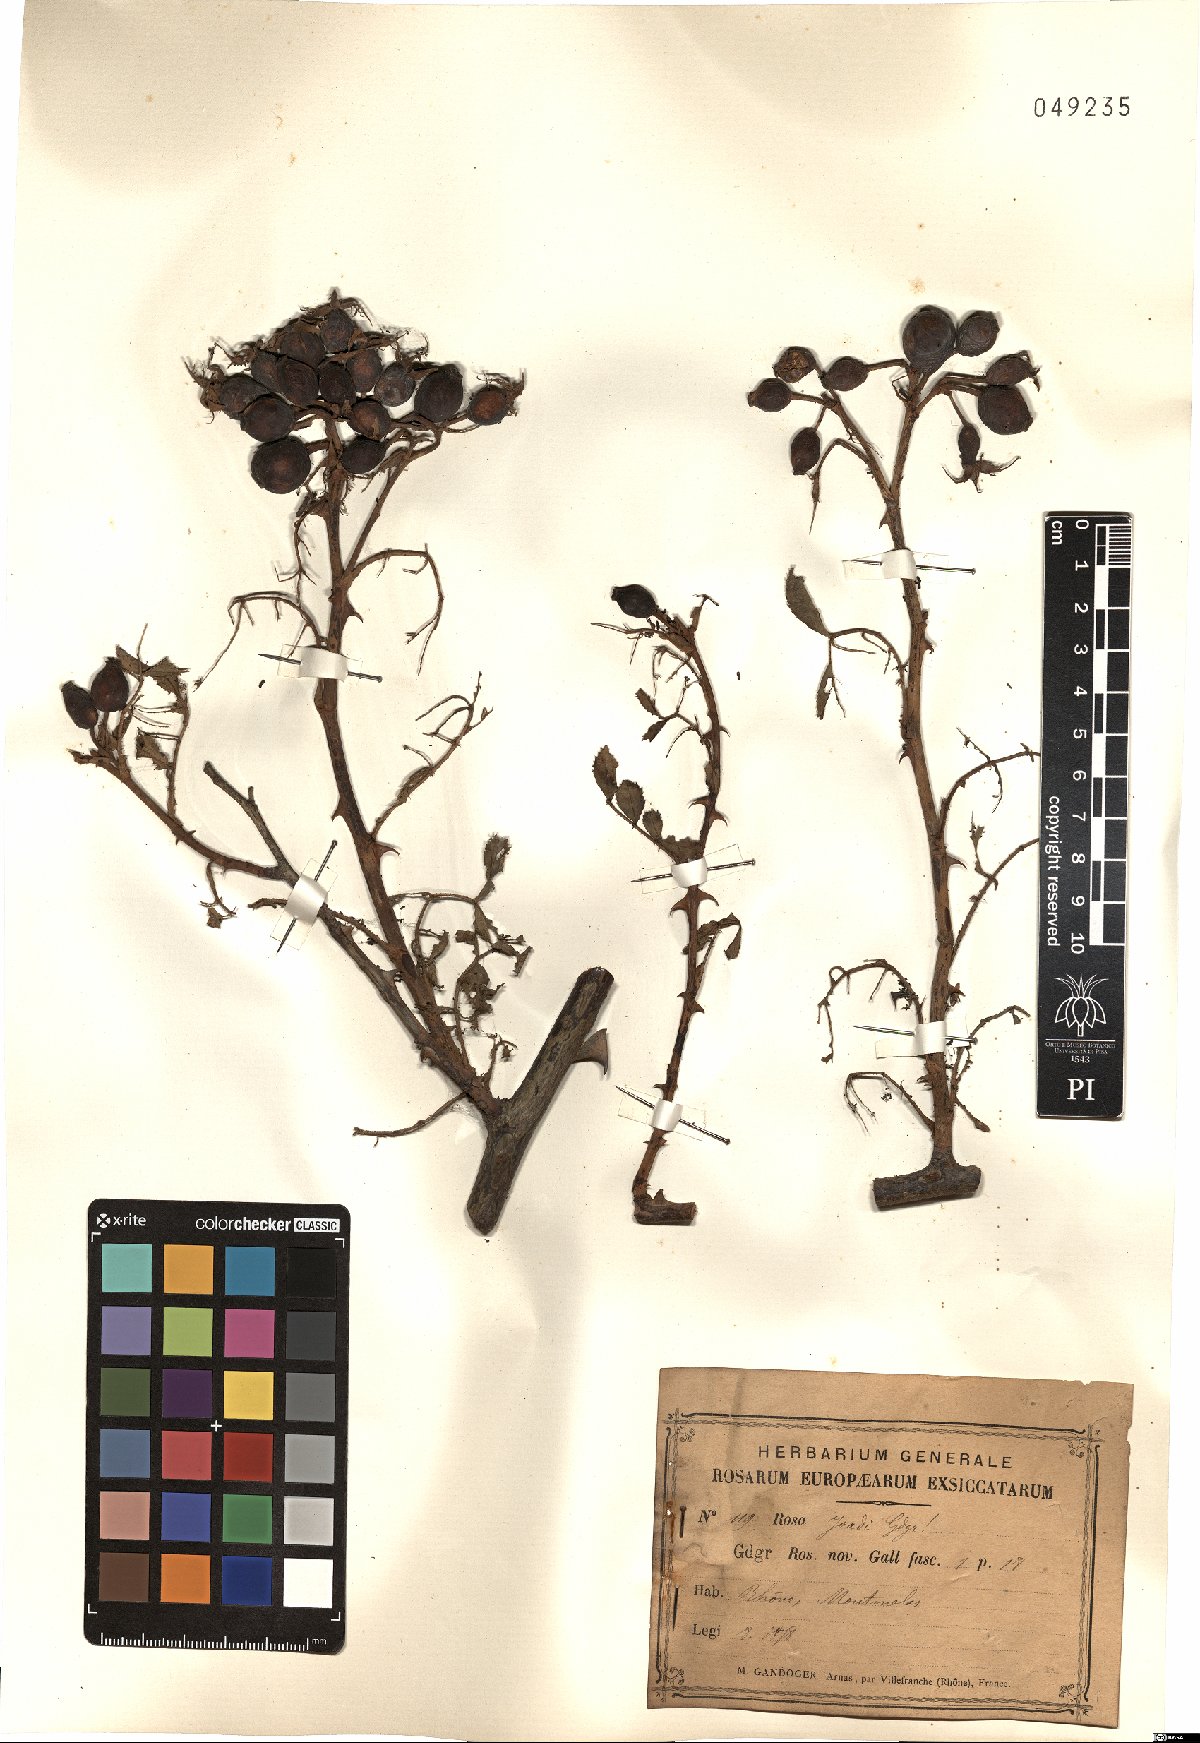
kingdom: Plantae
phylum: Tracheophyta
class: Magnoliopsida
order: Rosales
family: Rosaceae
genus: Rosa
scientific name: Rosa joadi
